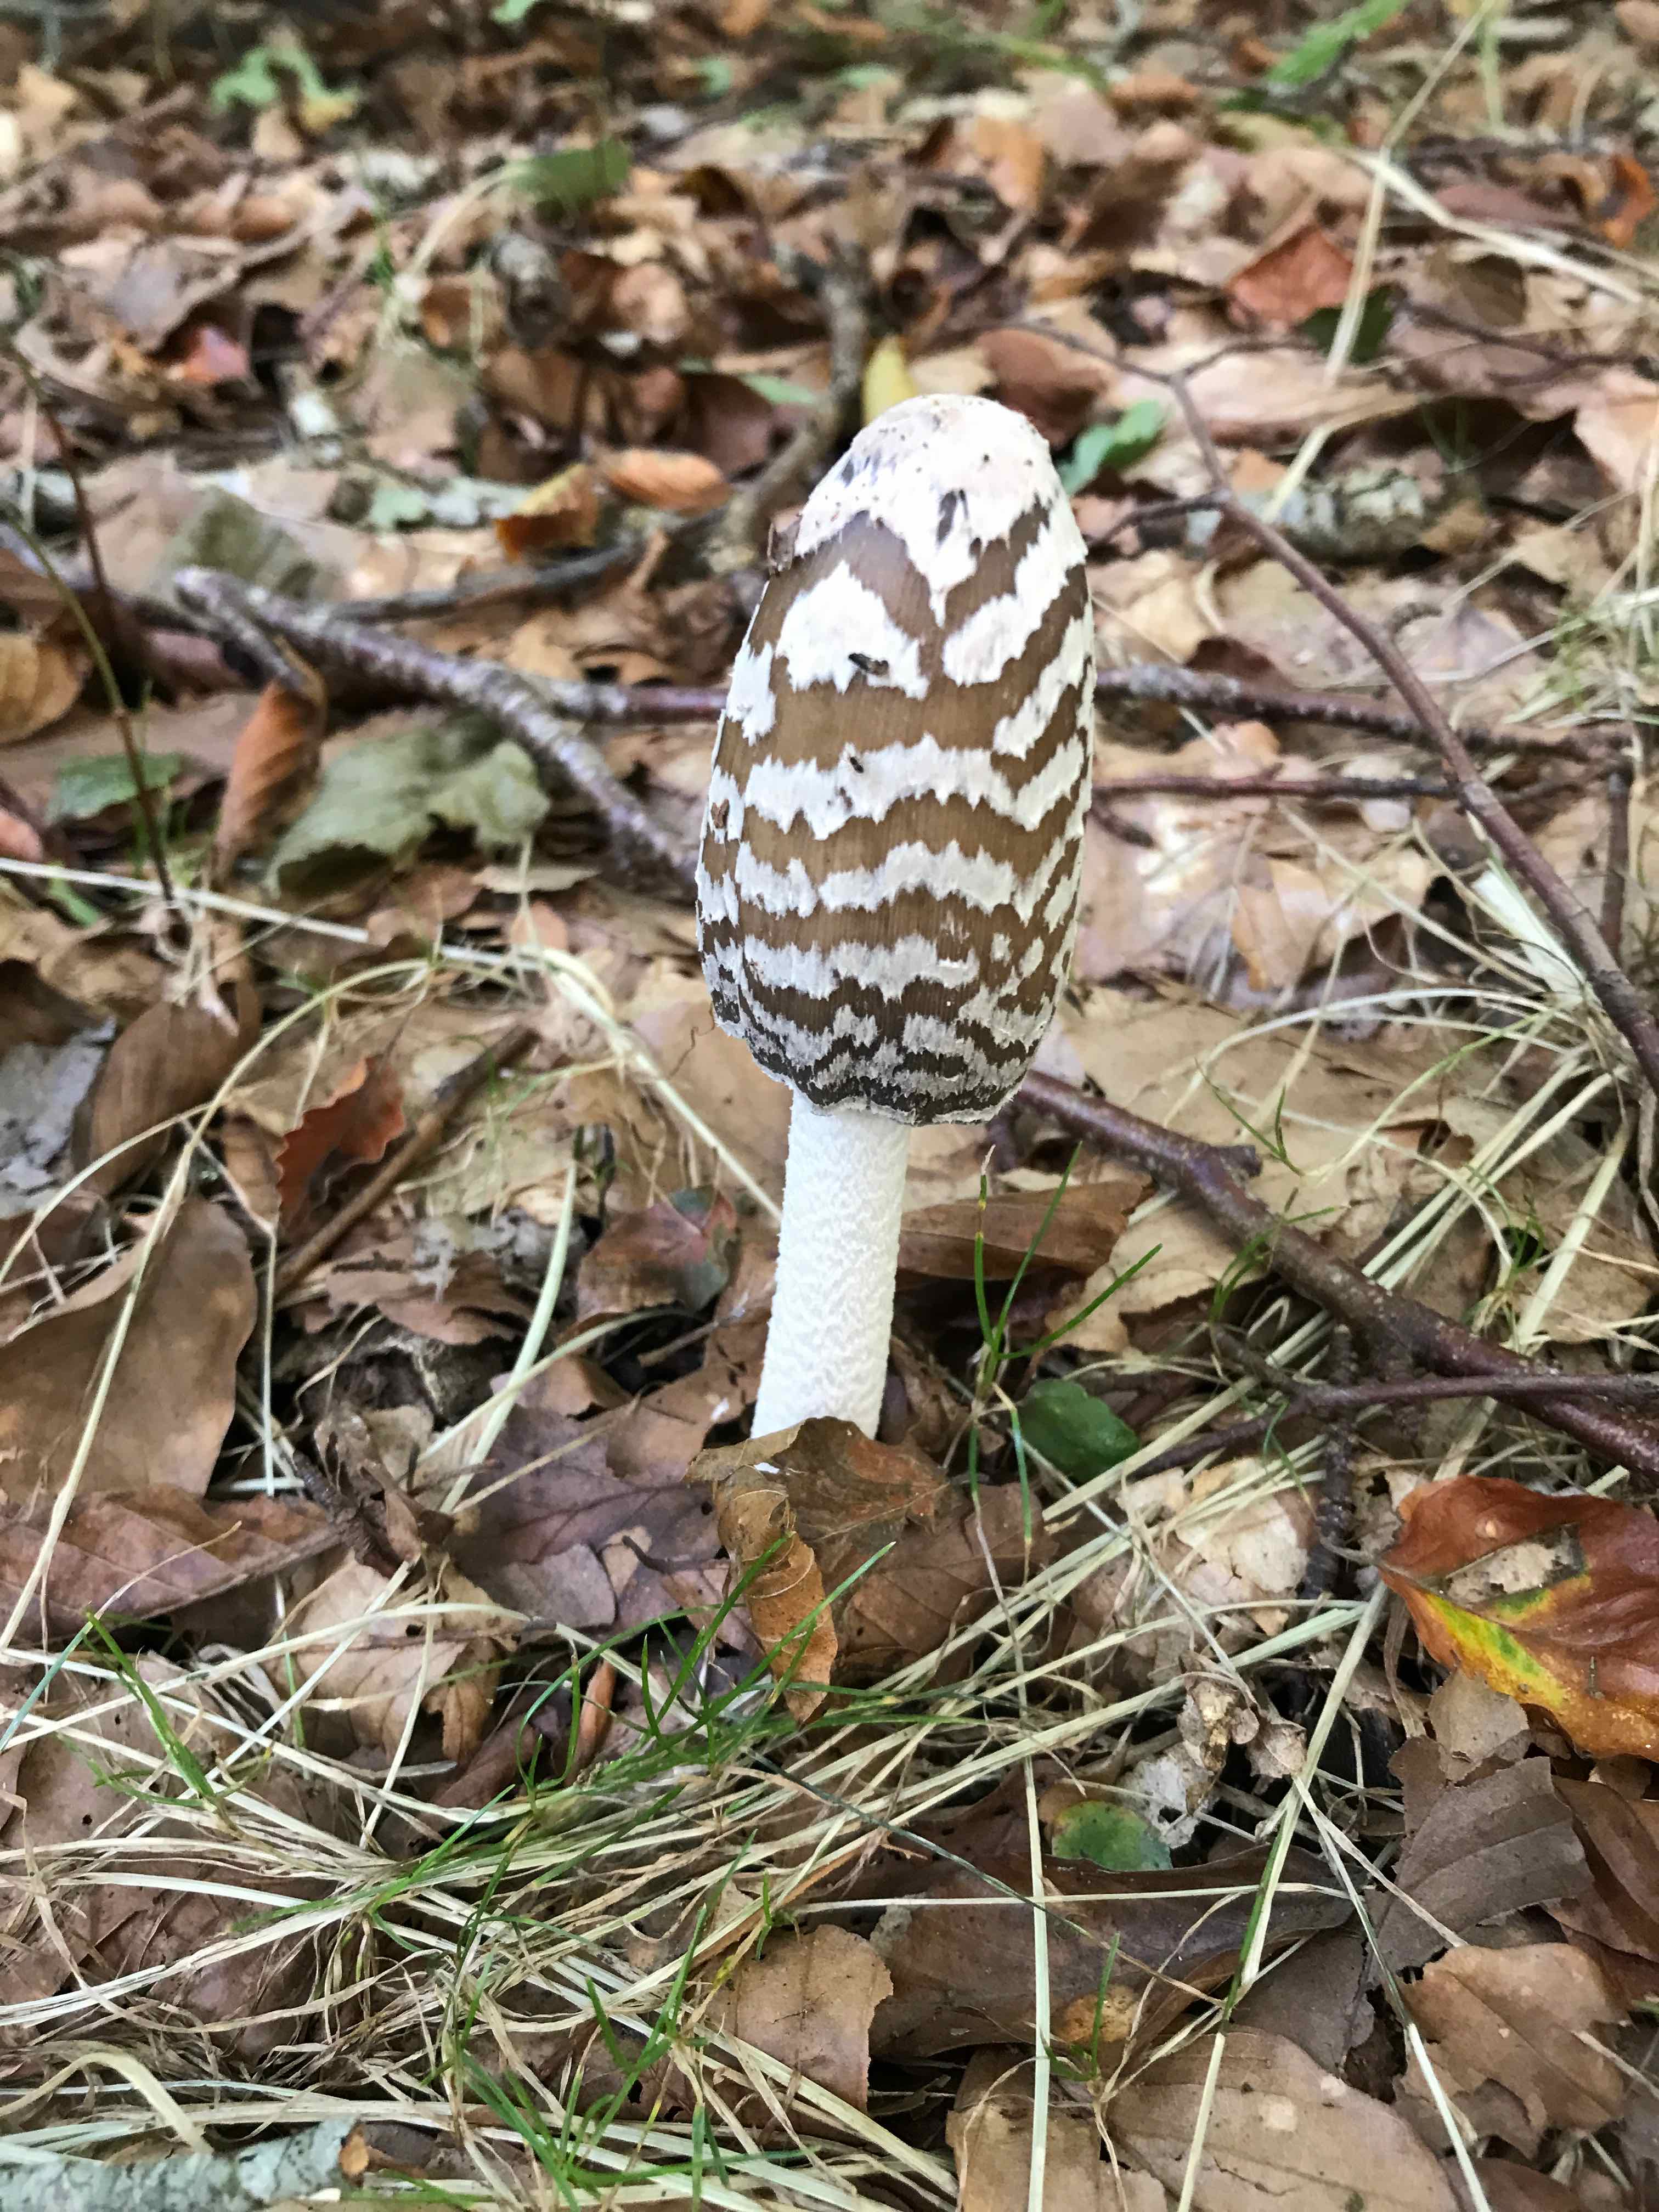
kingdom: Fungi
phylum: Basidiomycota
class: Agaricomycetes
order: Agaricales
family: Psathyrellaceae
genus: Coprinopsis
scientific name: Coprinopsis picacea
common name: skade-blækhat
